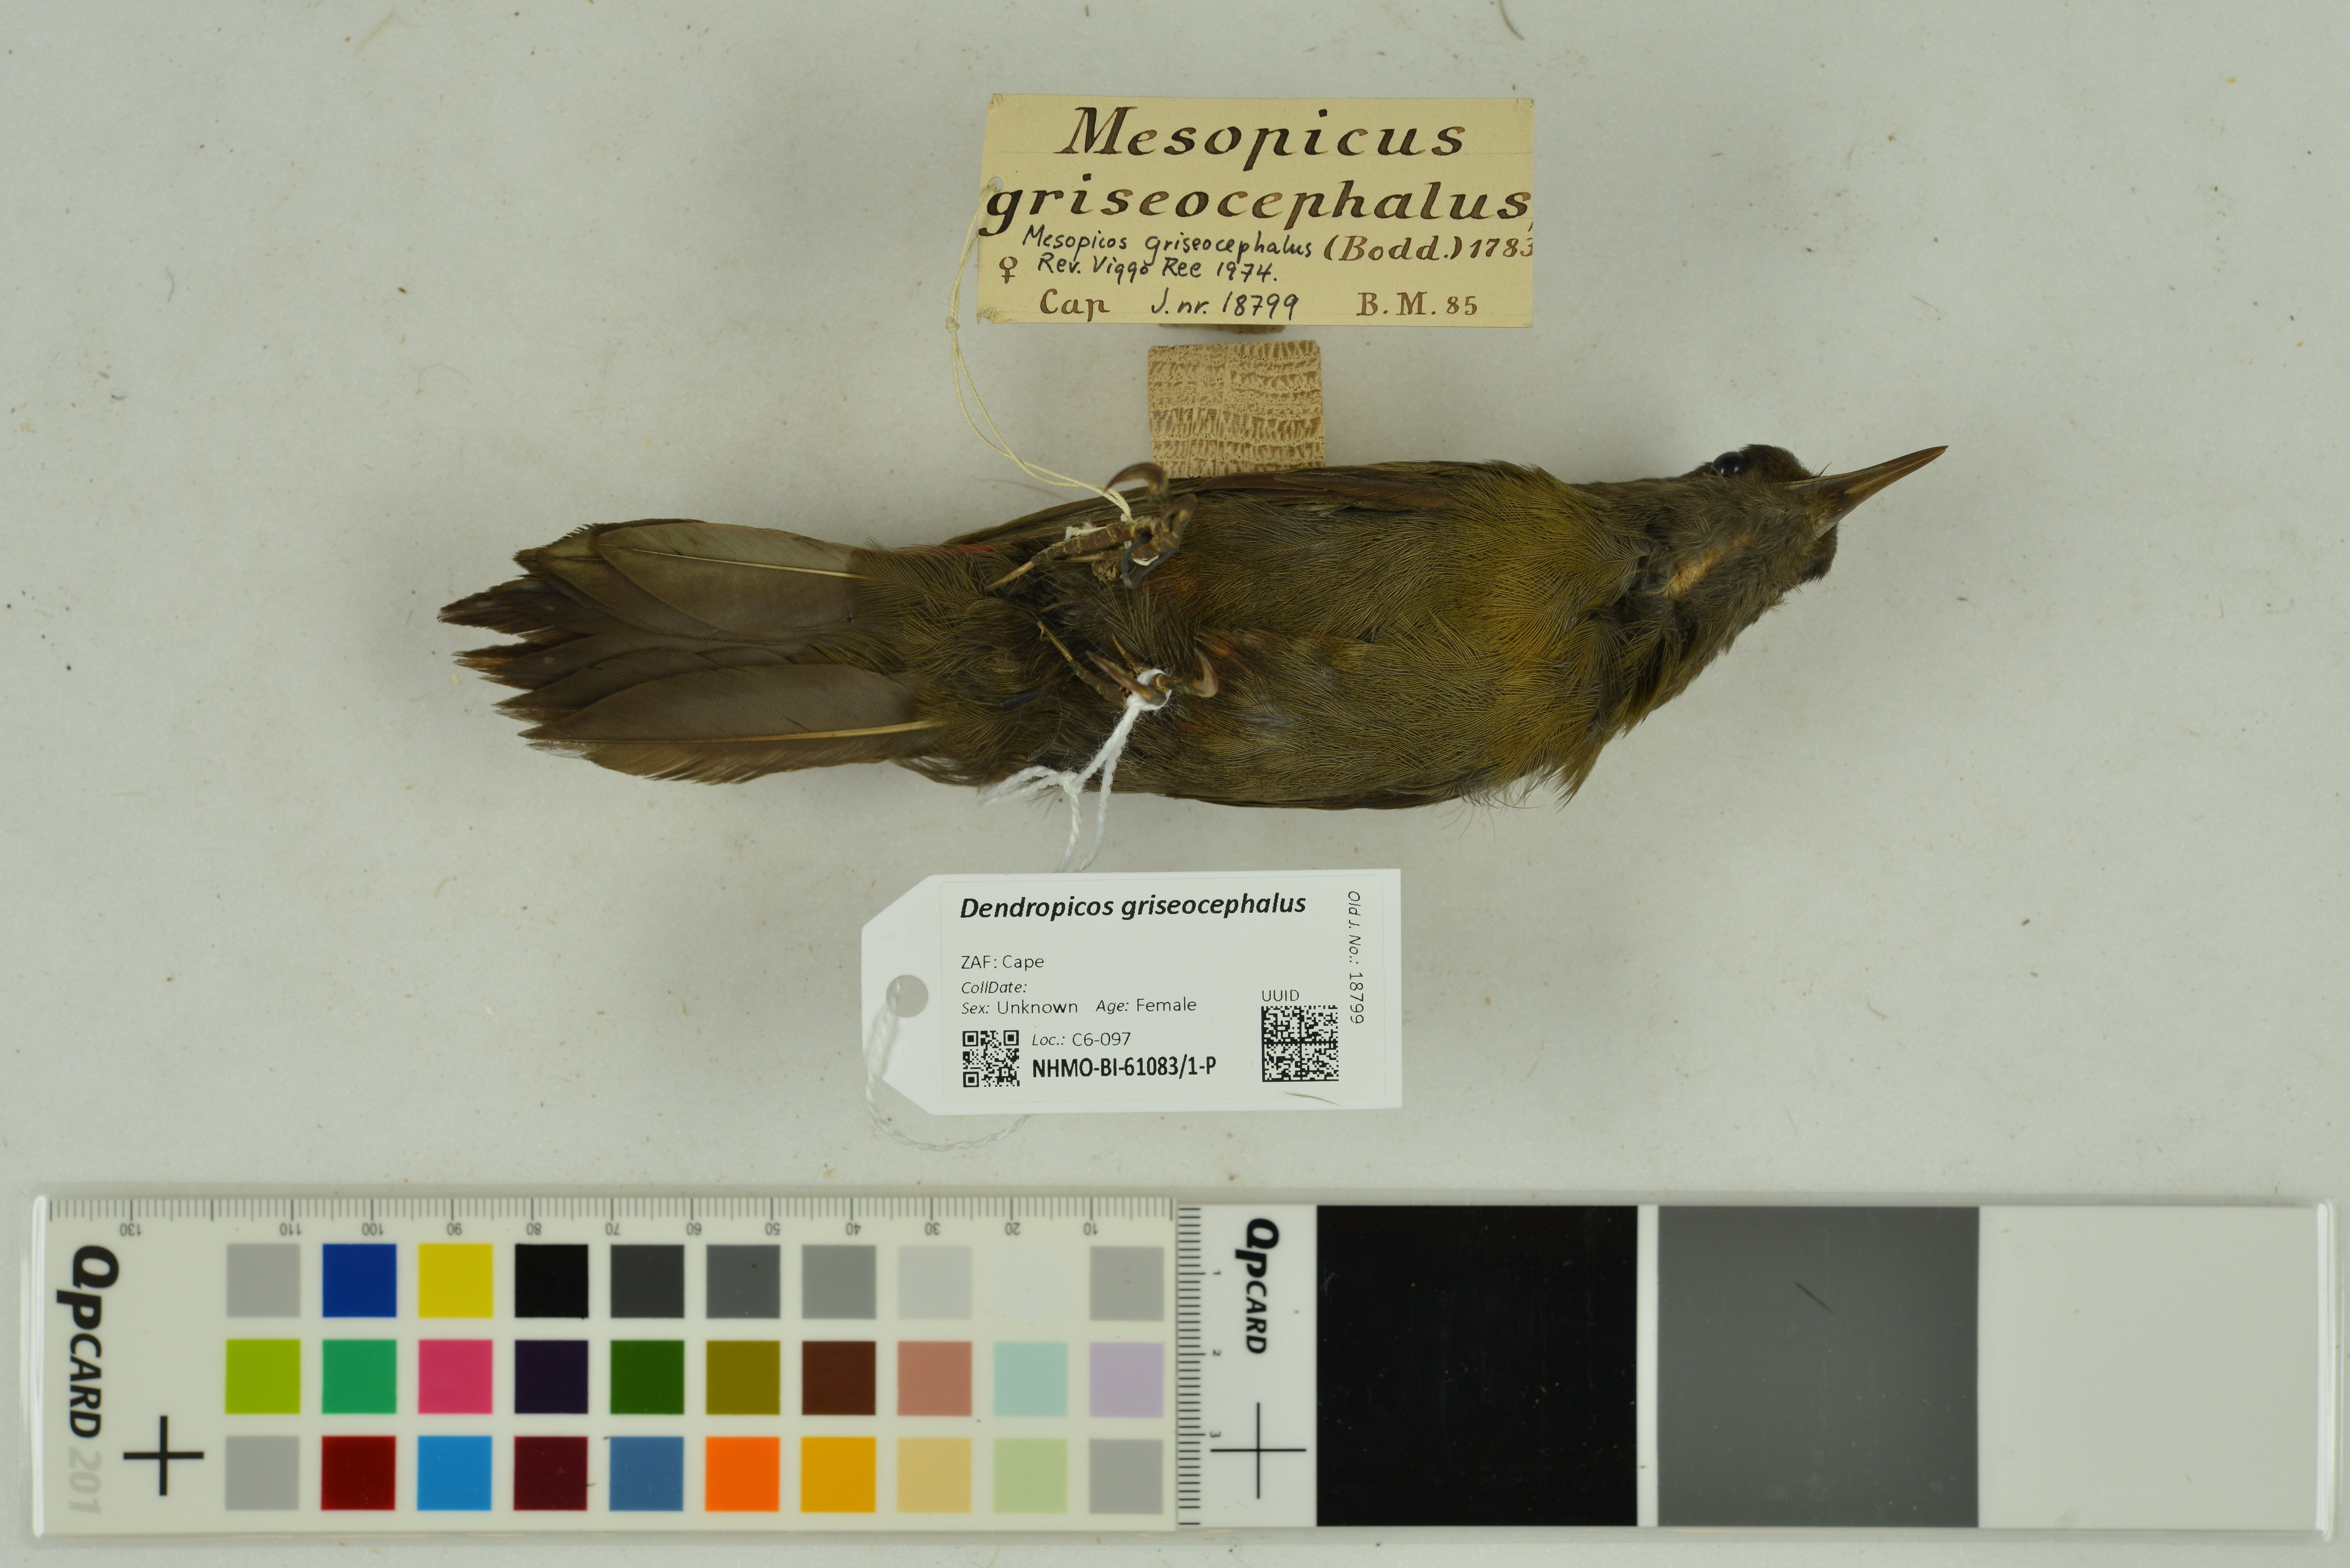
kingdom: Animalia
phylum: Chordata
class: Aves
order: Piciformes
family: Picidae
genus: Dendropicos
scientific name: Dendropicos griseocephalus
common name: Olive woodpecker
